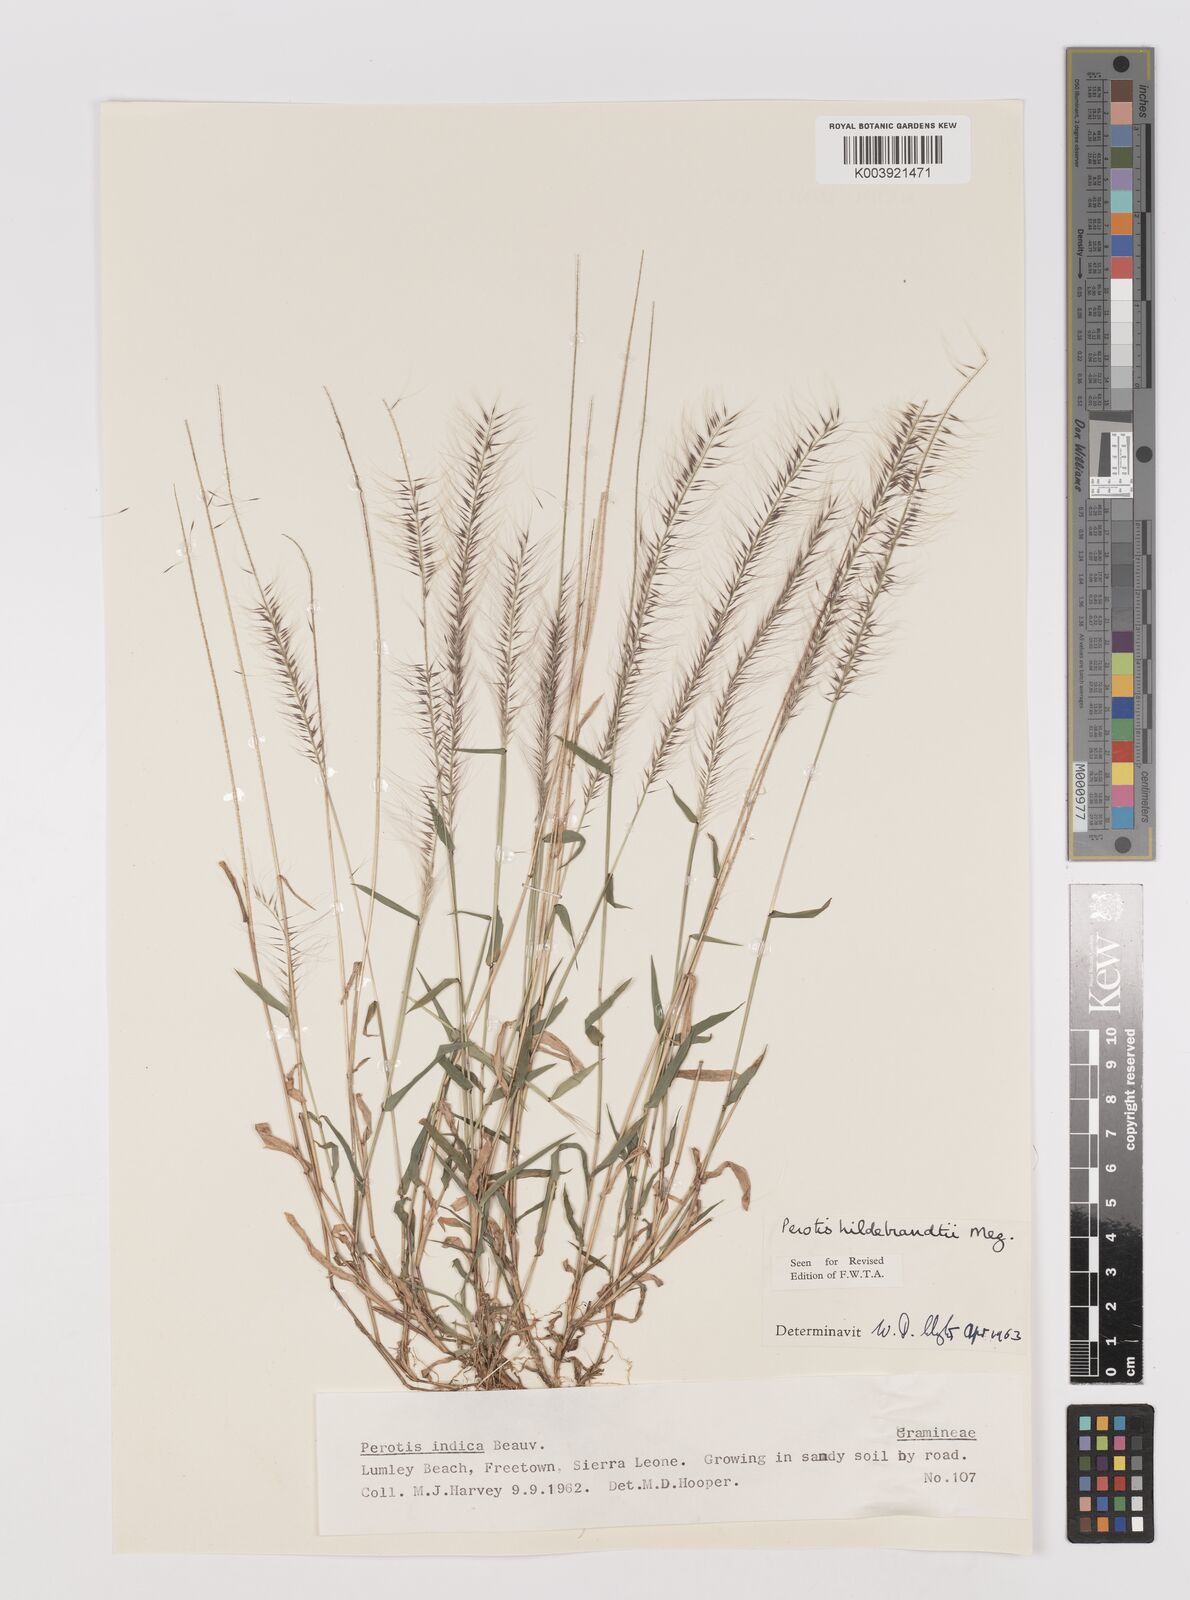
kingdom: Plantae
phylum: Tracheophyta
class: Liliopsida
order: Poales
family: Poaceae
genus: Perotis
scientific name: Perotis hildebrandtii
